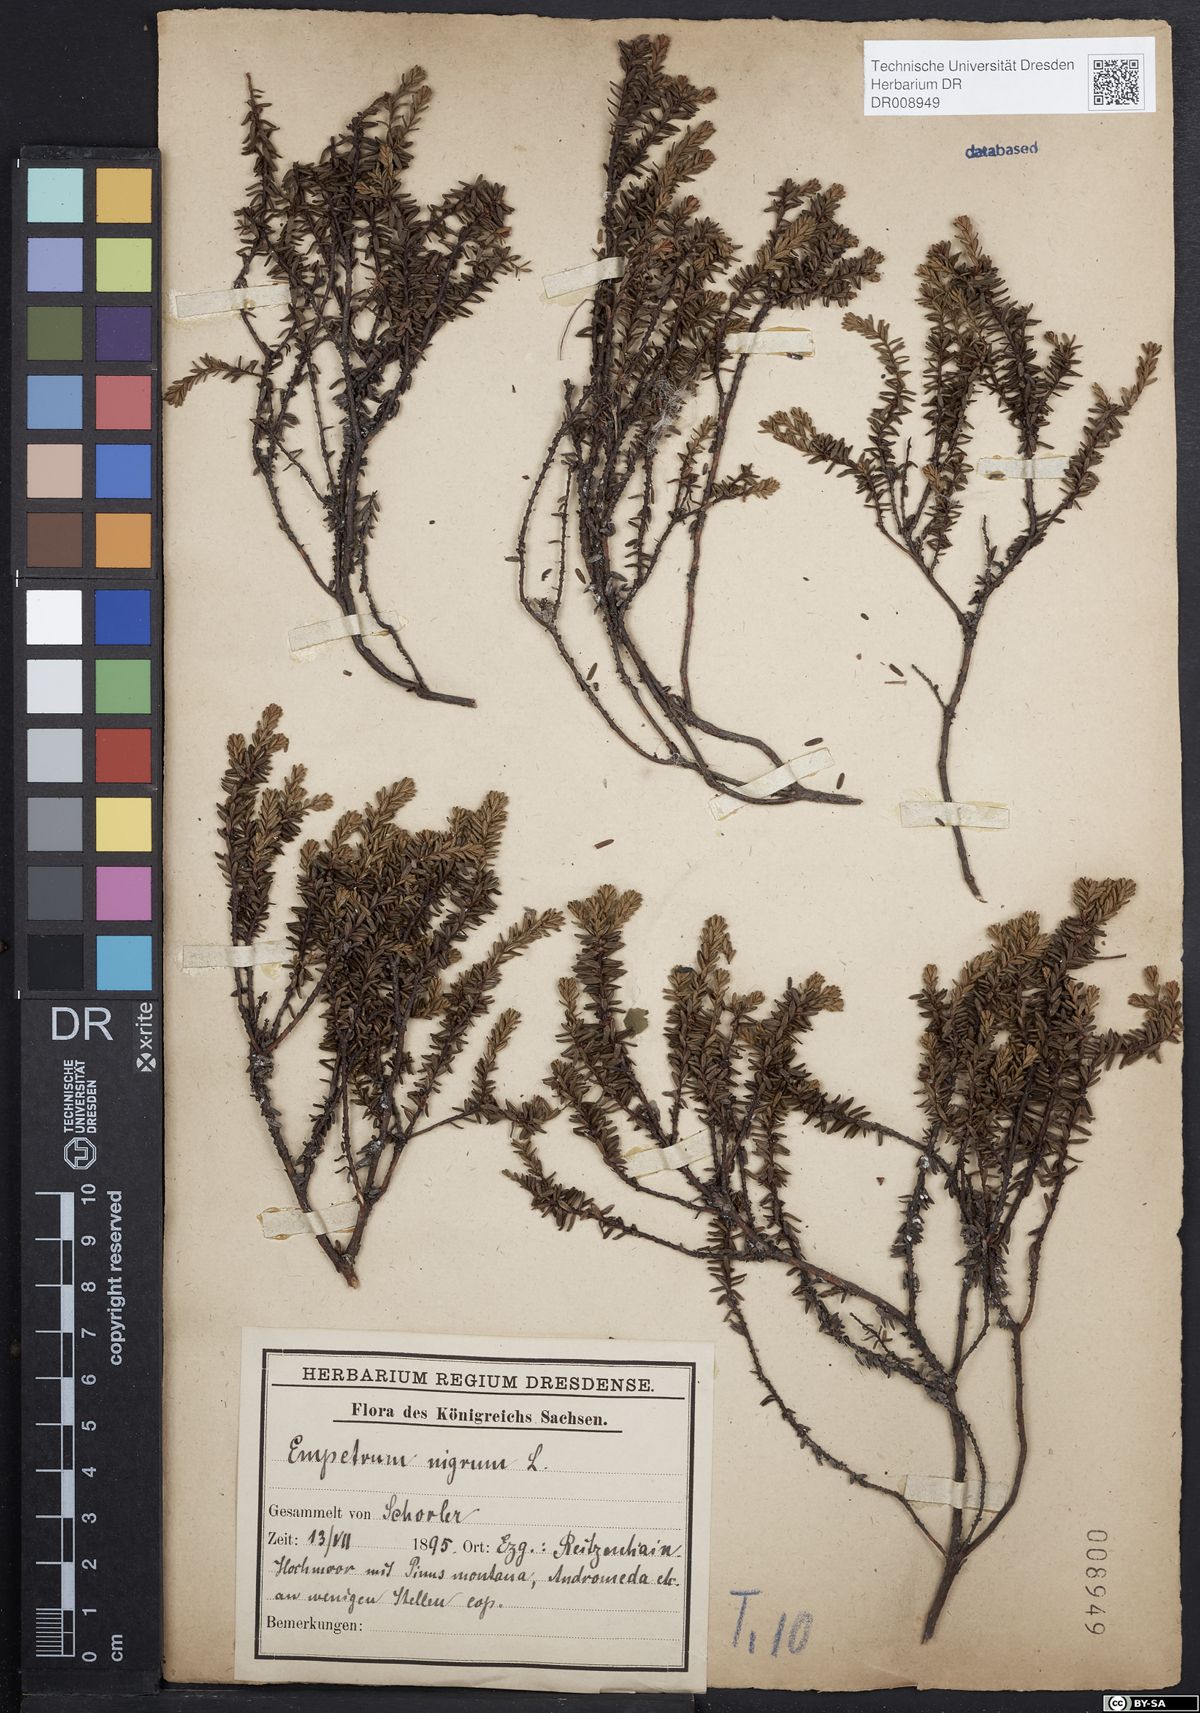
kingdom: Plantae
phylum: Tracheophyta
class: Magnoliopsida
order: Ericales
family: Ericaceae
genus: Empetrum
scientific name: Empetrum nigrum
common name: Black crowberry
